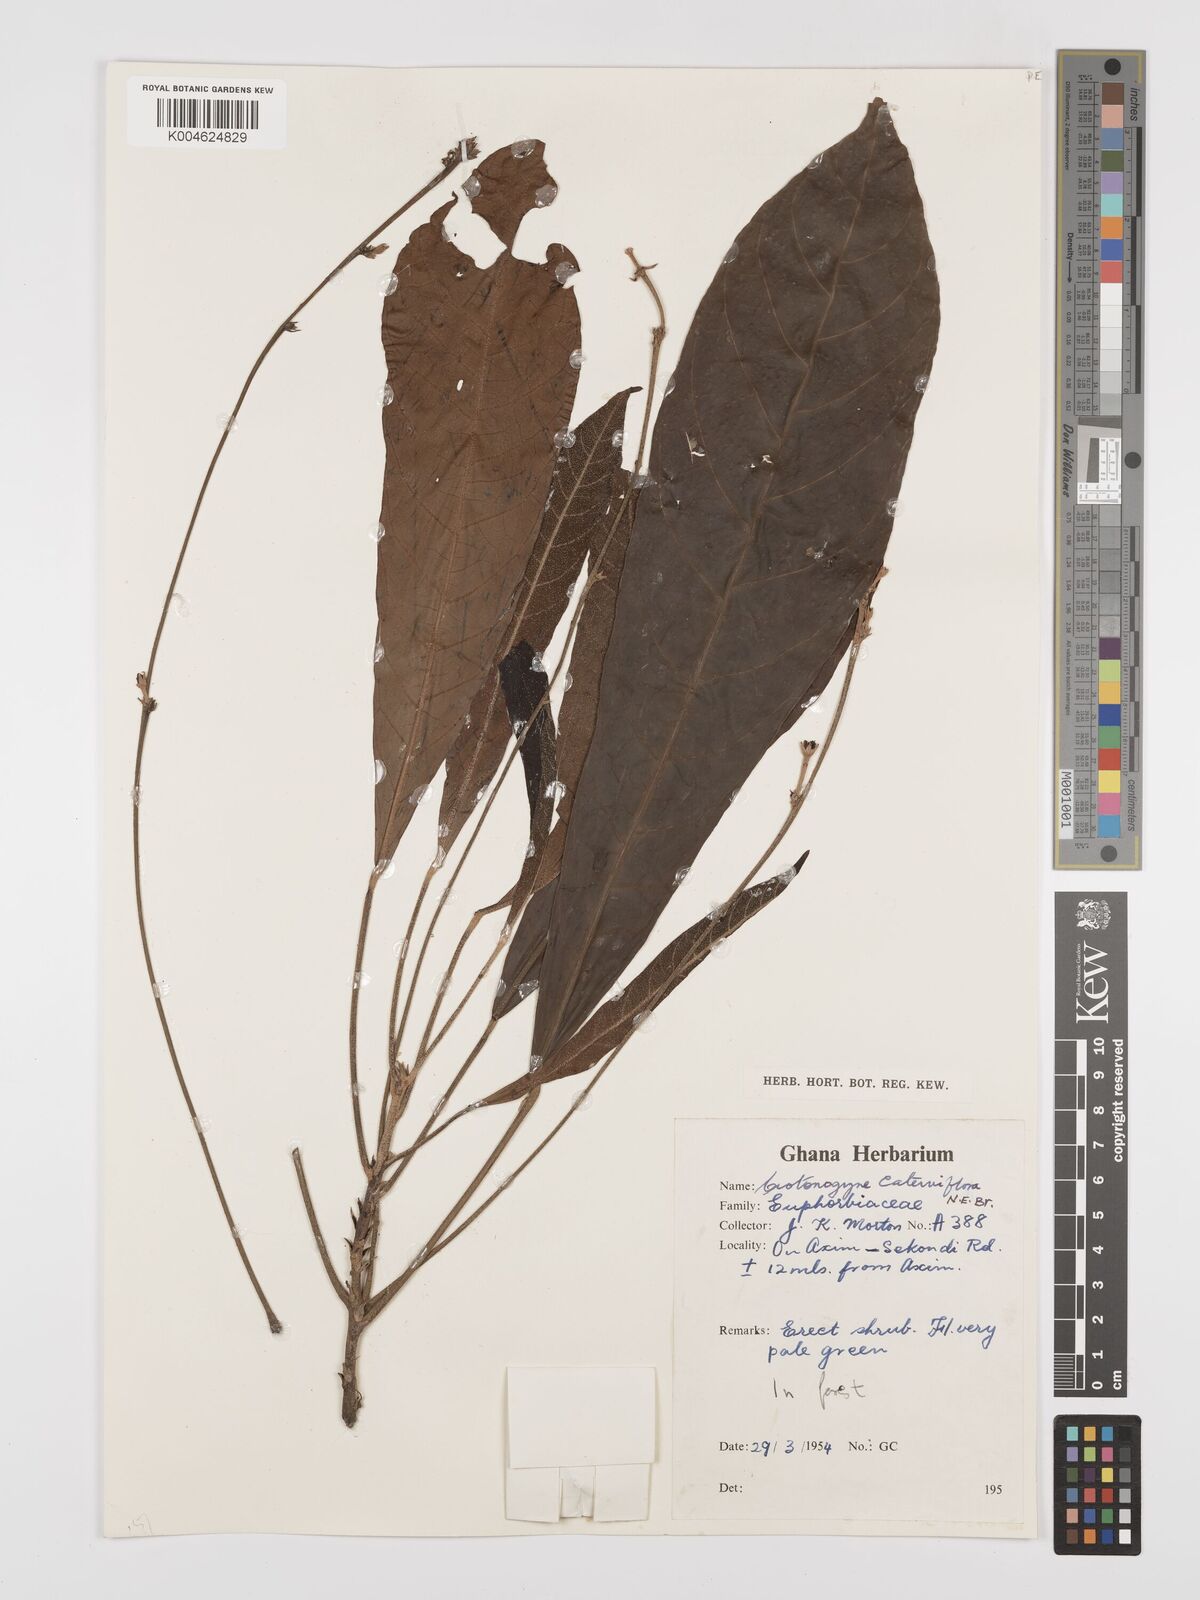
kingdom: Plantae
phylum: Tracheophyta
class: Magnoliopsida
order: Malpighiales
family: Euphorbiaceae
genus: Crotonogyne
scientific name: Crotonogyne caterviflora
